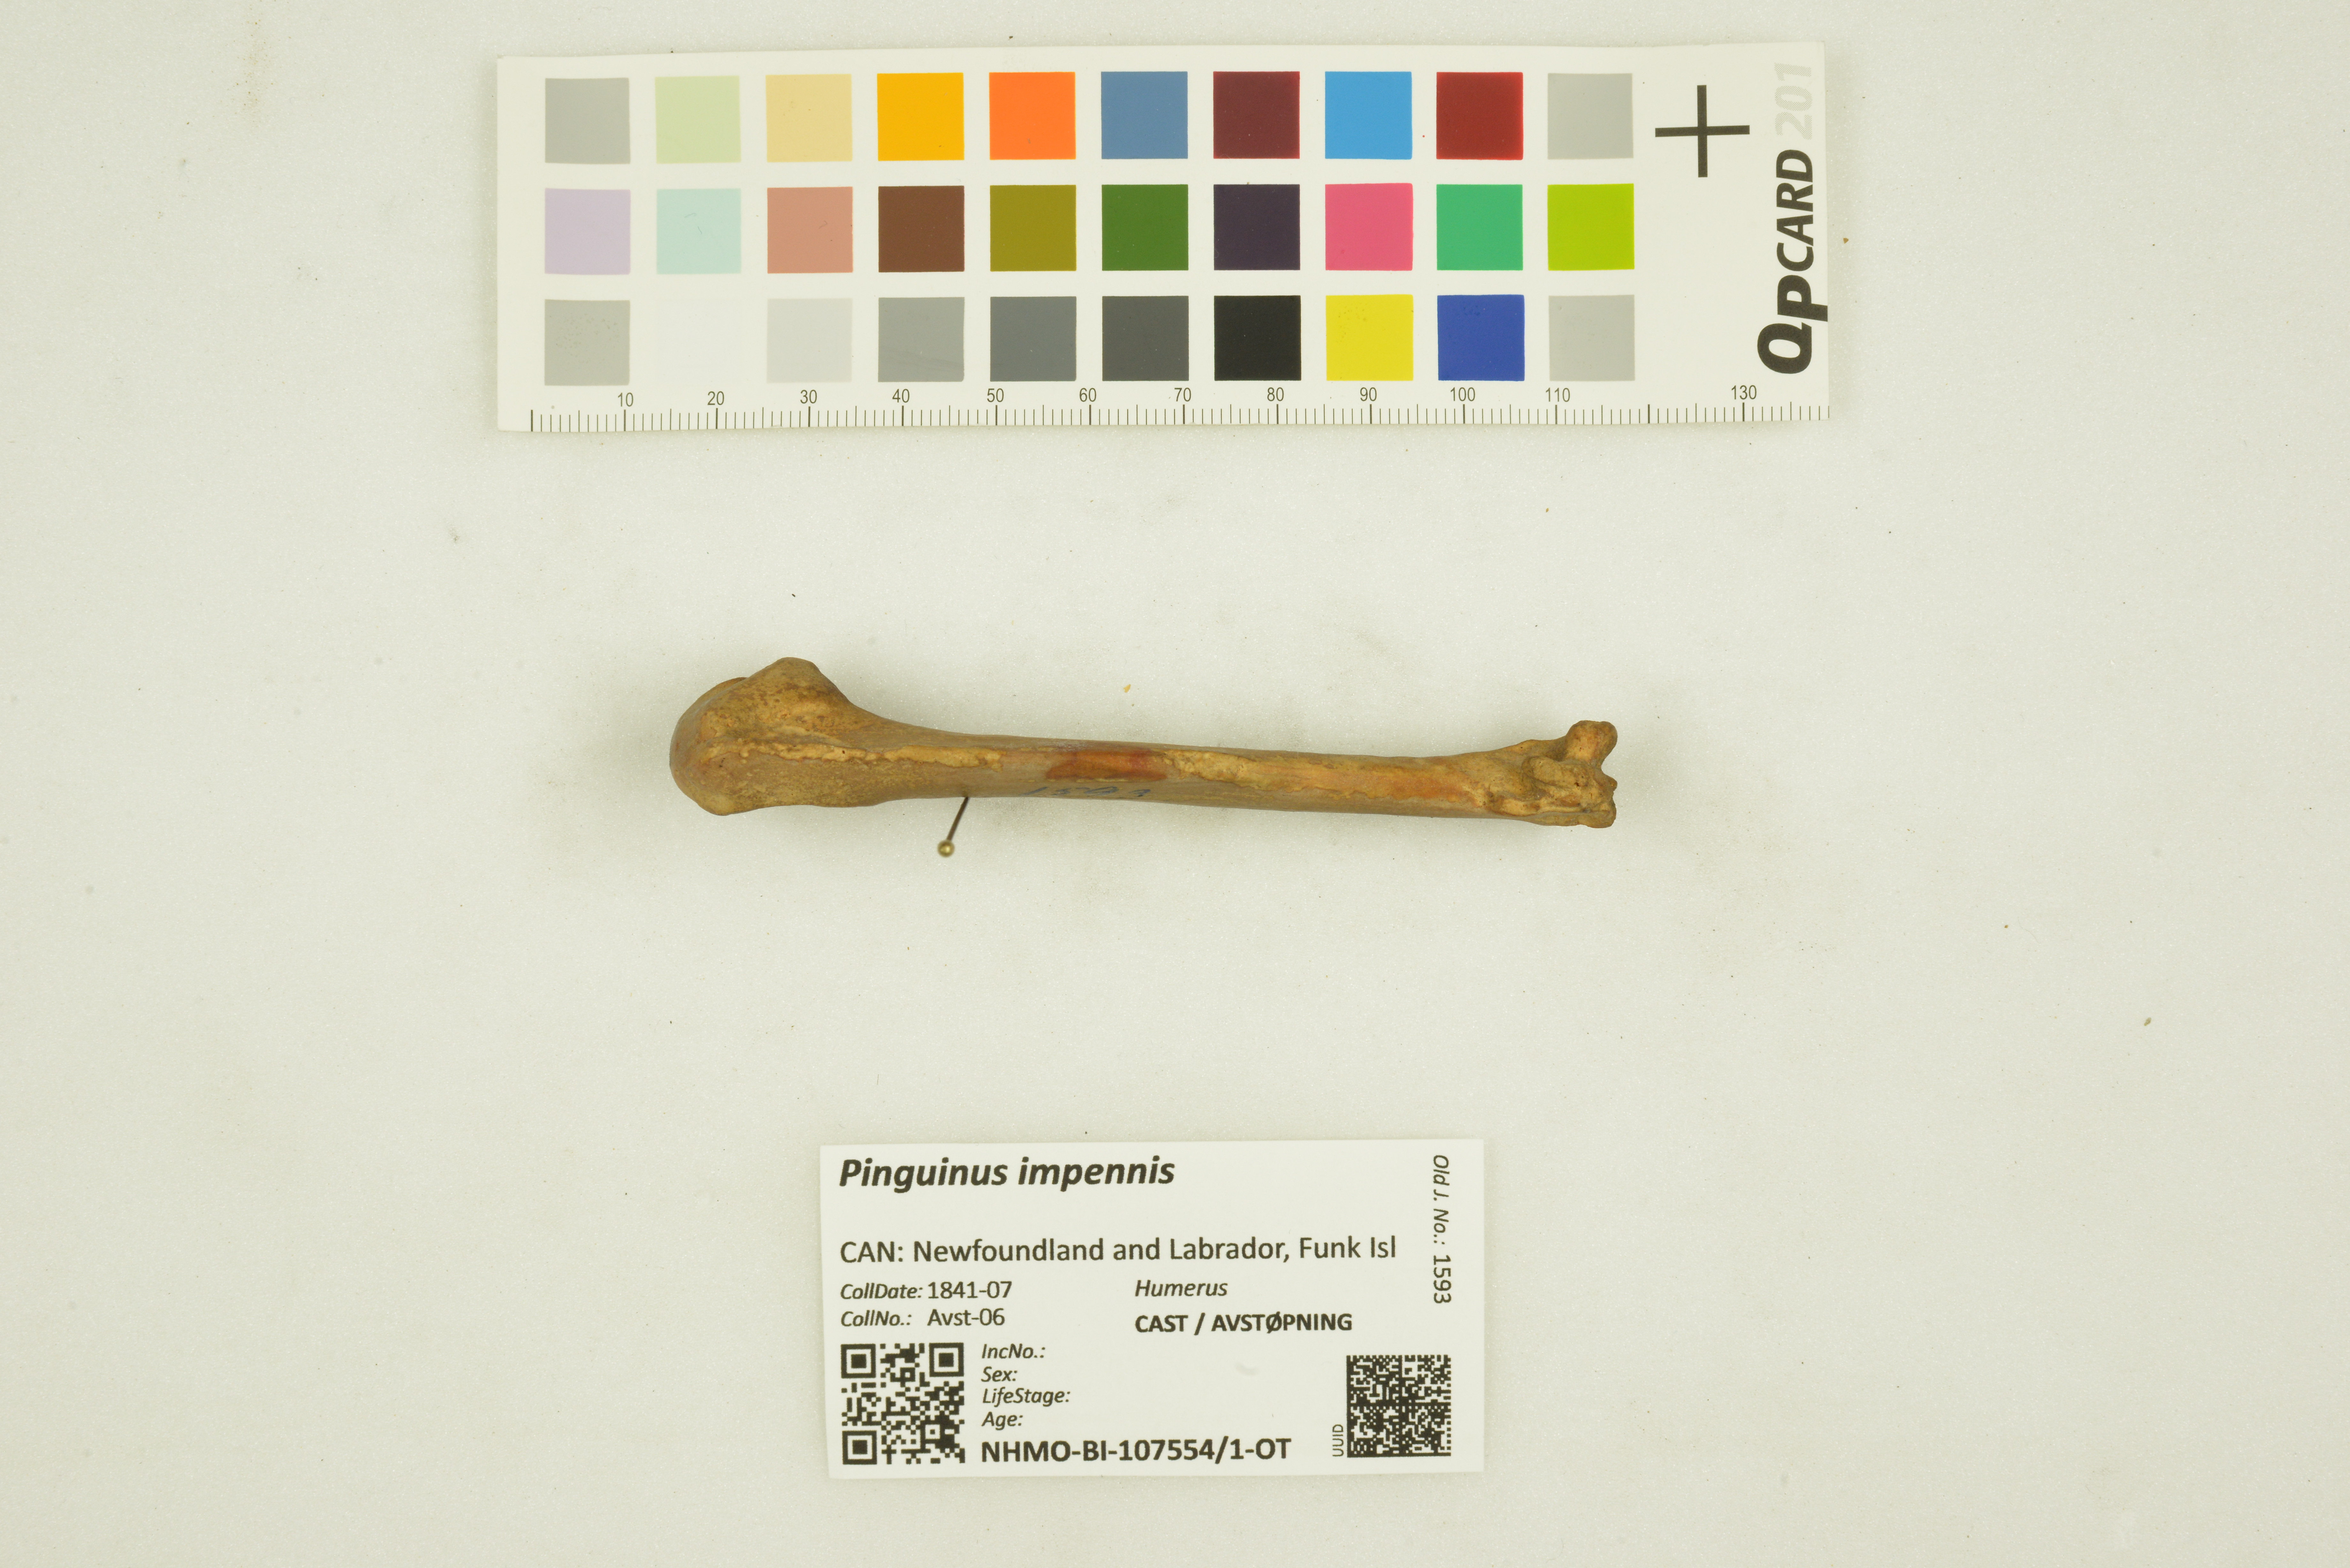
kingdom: Animalia
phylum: Chordata
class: Aves
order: Charadriiformes
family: Alcidae
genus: Pinguinus
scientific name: Pinguinus impennis
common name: Great auk
